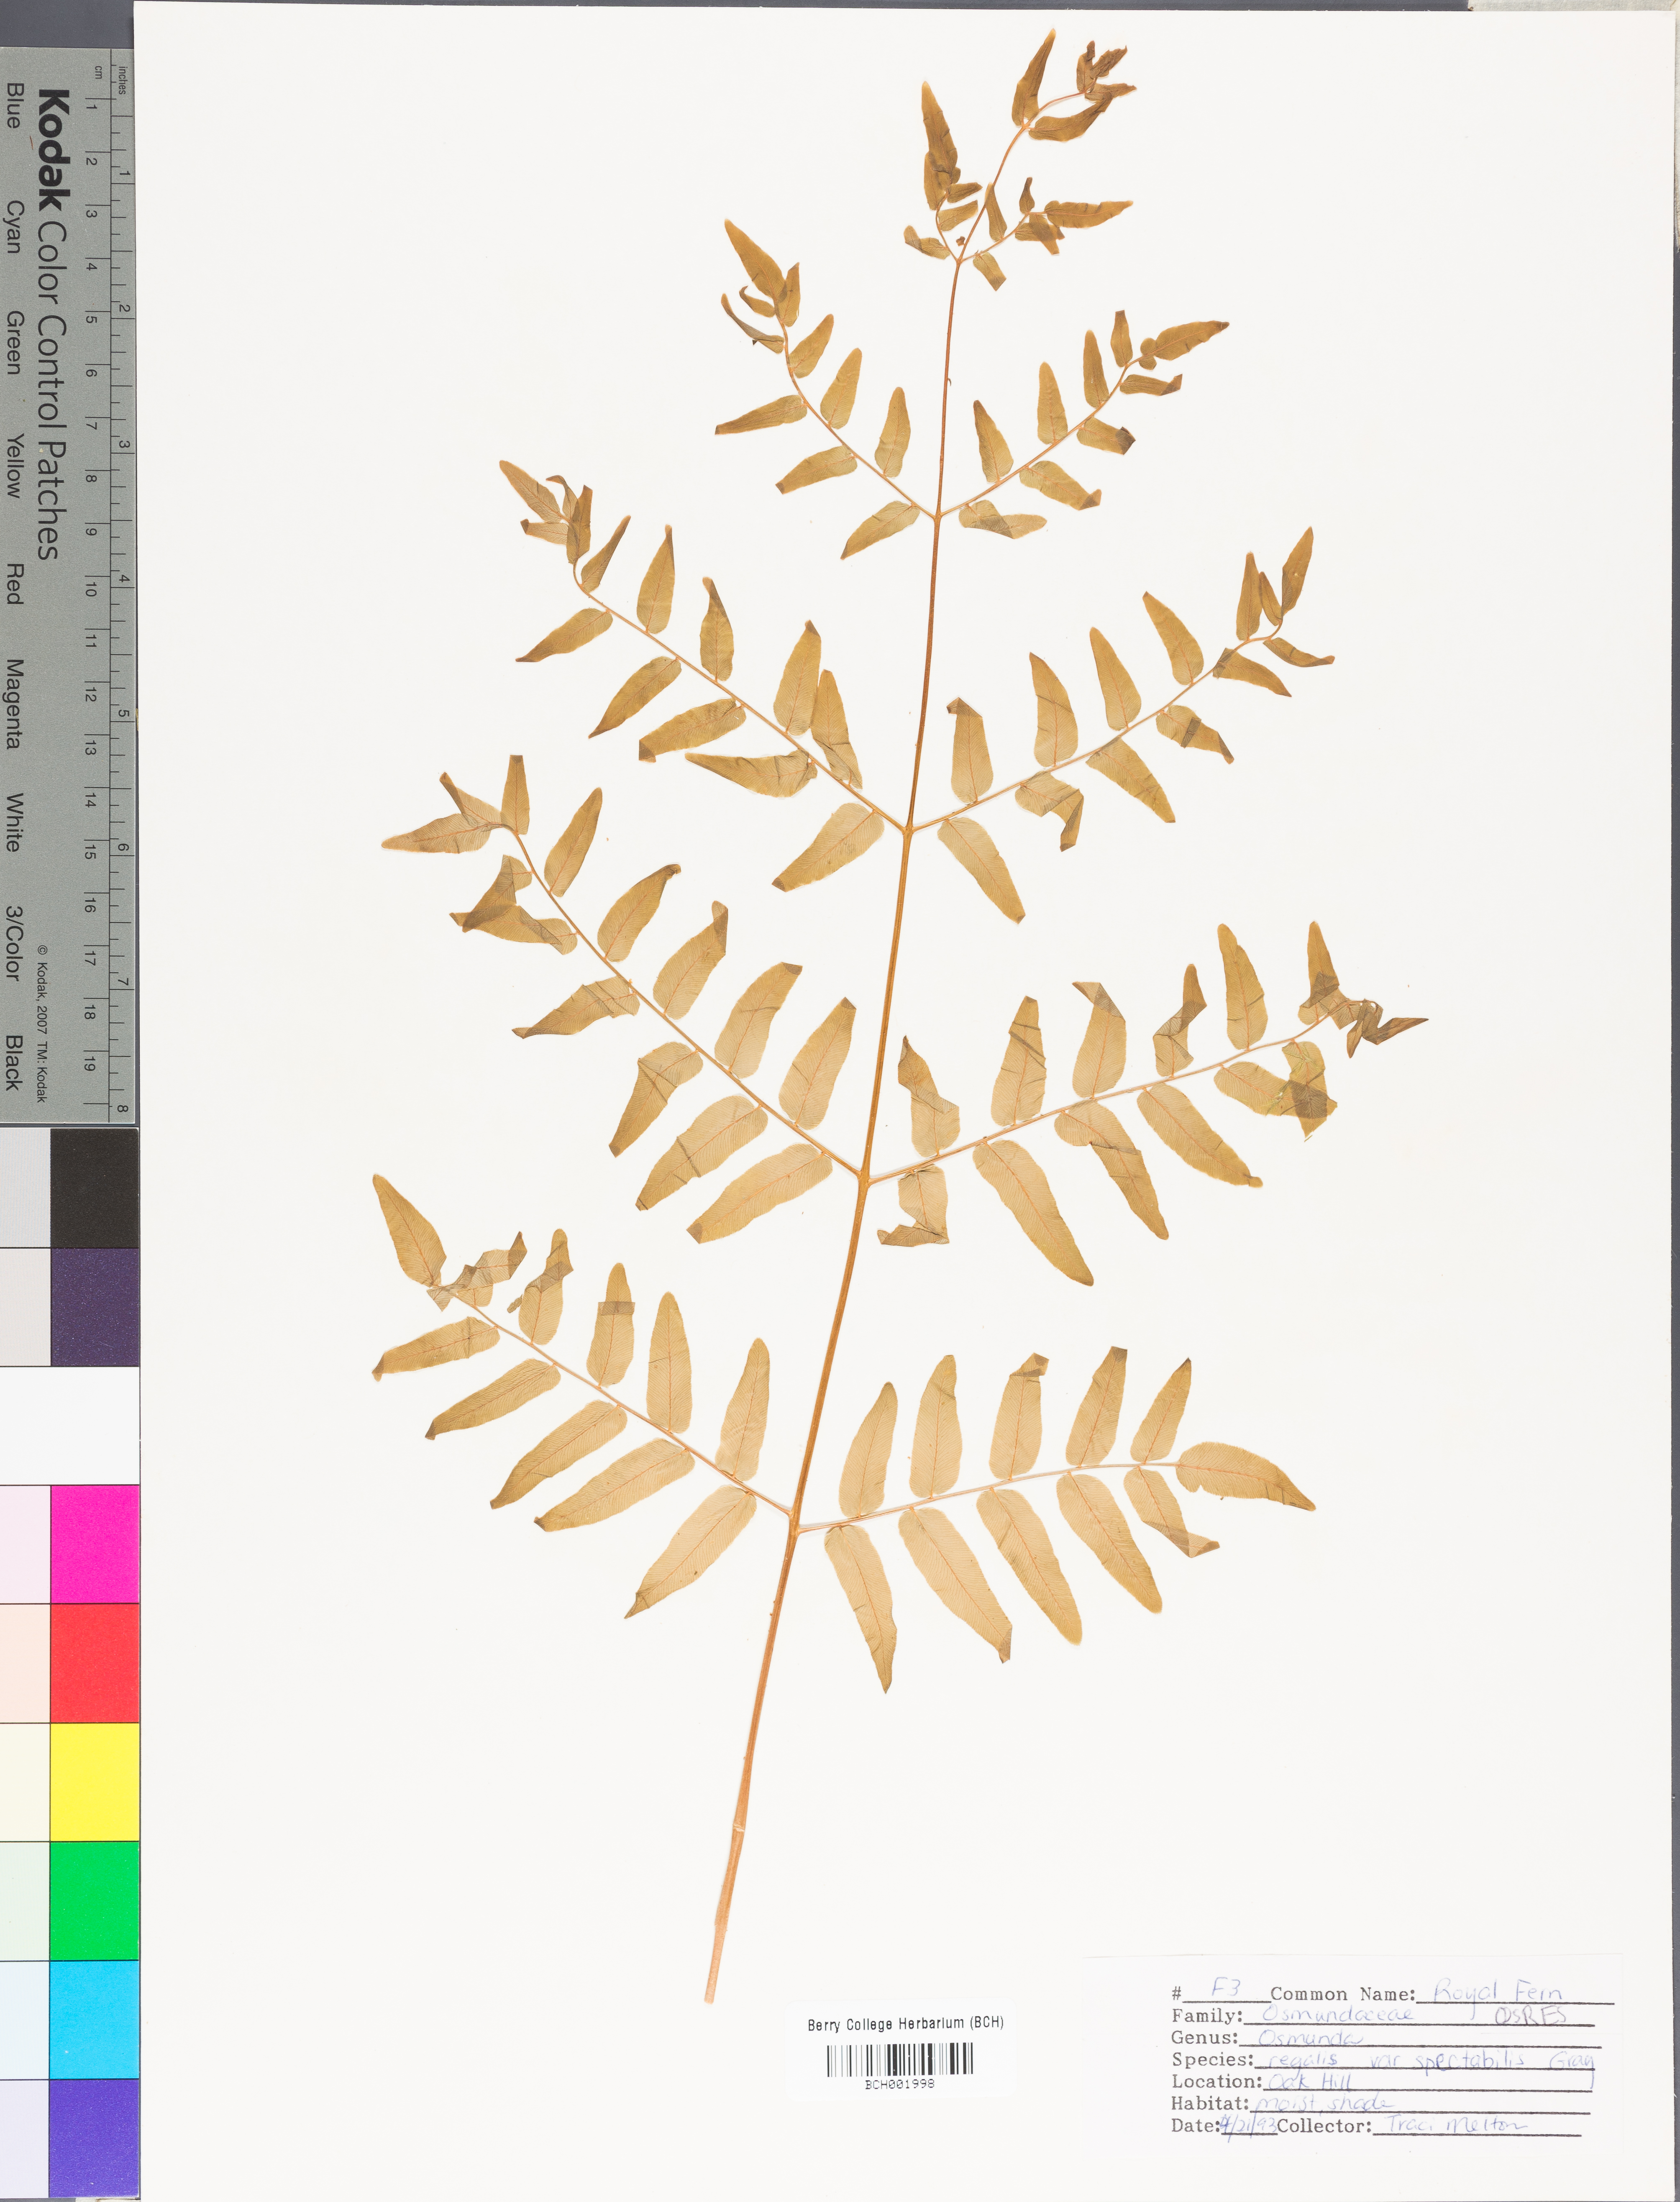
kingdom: Plantae
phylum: Tracheophyta
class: Polypodiopsida
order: Osmundales
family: Osmundaceae
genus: Osmunda
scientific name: Osmunda spectabilis
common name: American royal fern
